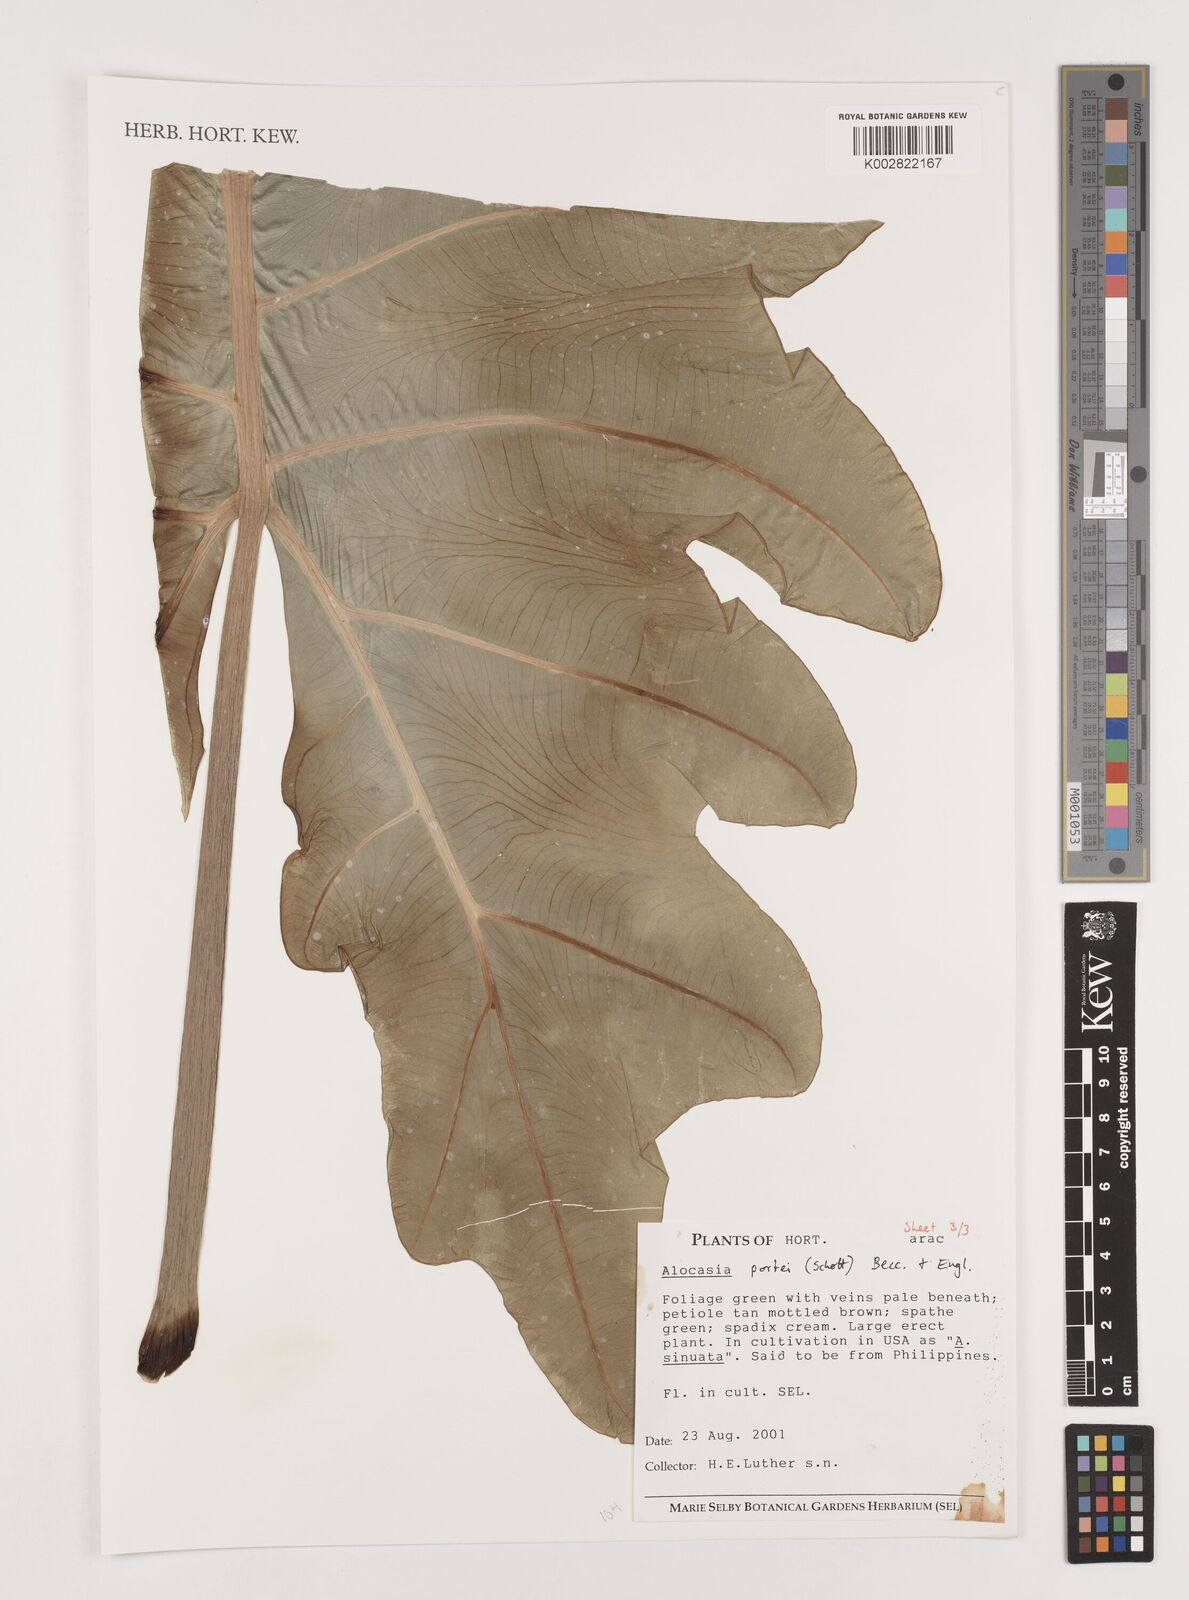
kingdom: Plantae
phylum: Tracheophyta
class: Liliopsida
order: Alismatales
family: Araceae
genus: Alocasia
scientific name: Alocasia portei
